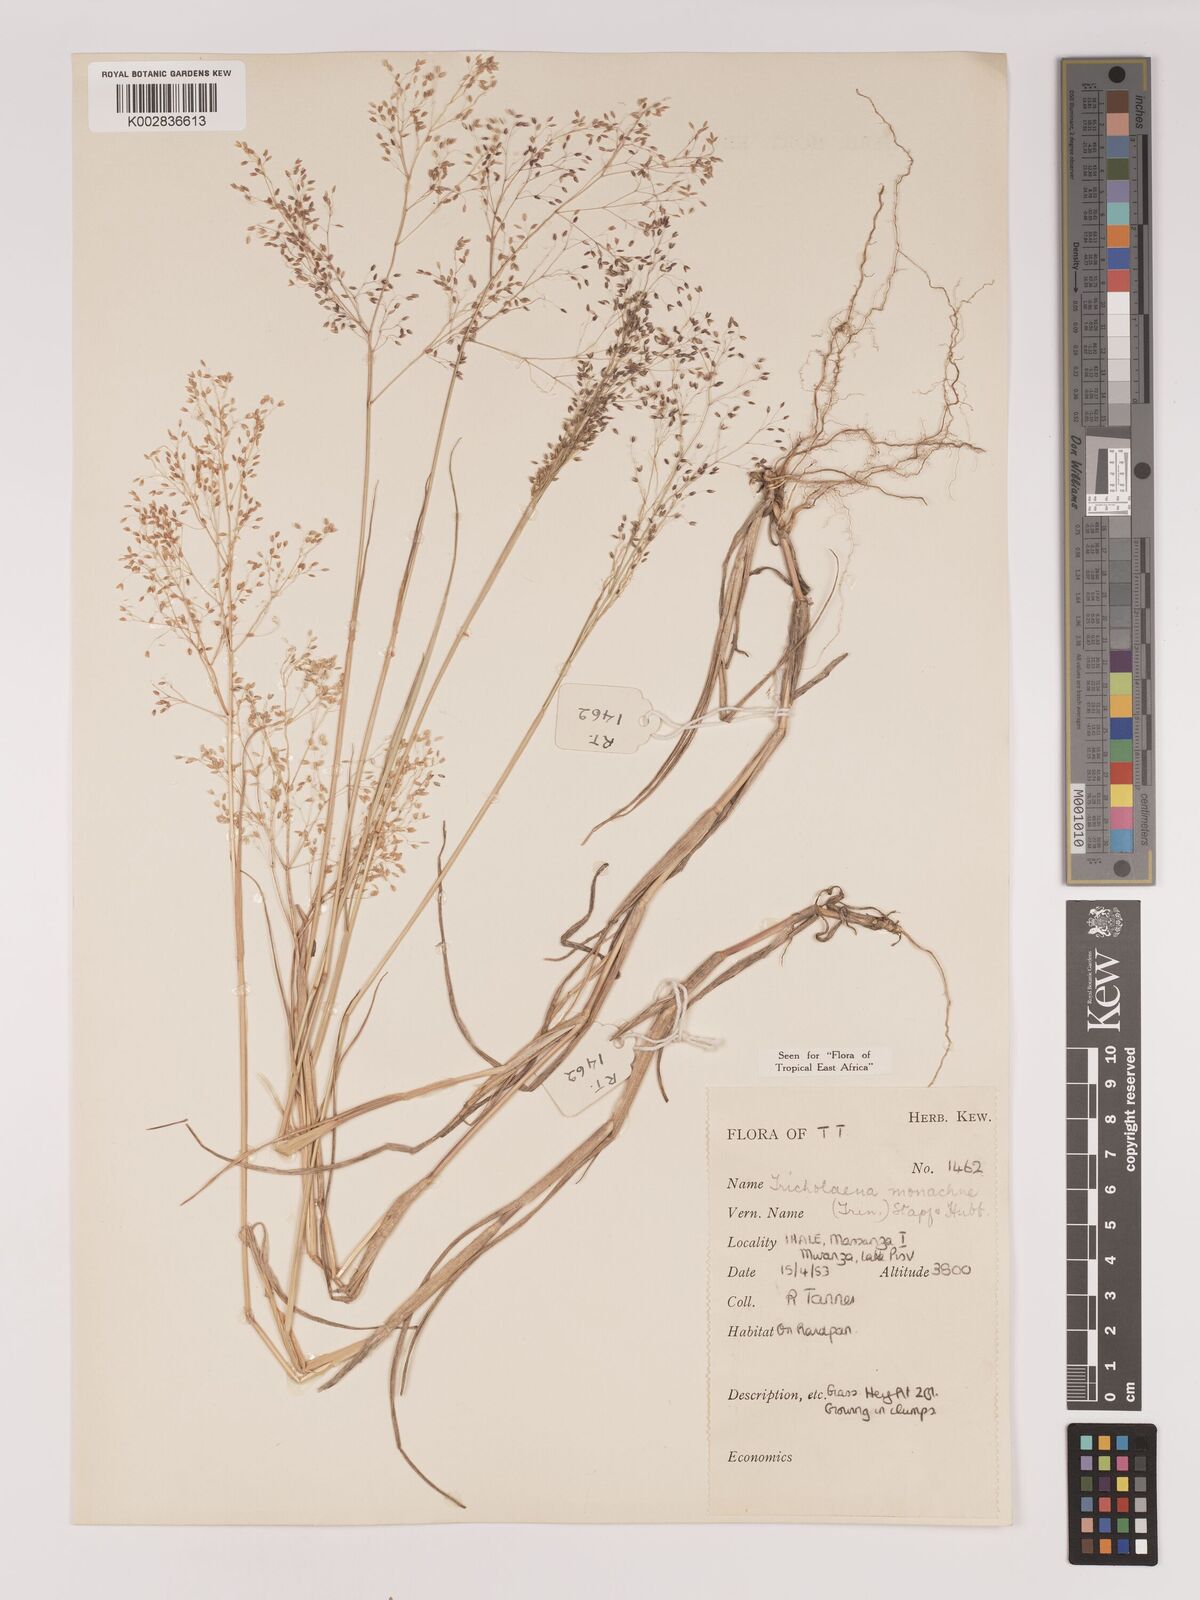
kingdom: Plantae
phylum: Tracheophyta
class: Liliopsida
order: Poales
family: Poaceae
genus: Tricholaena
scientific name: Tricholaena monachne
